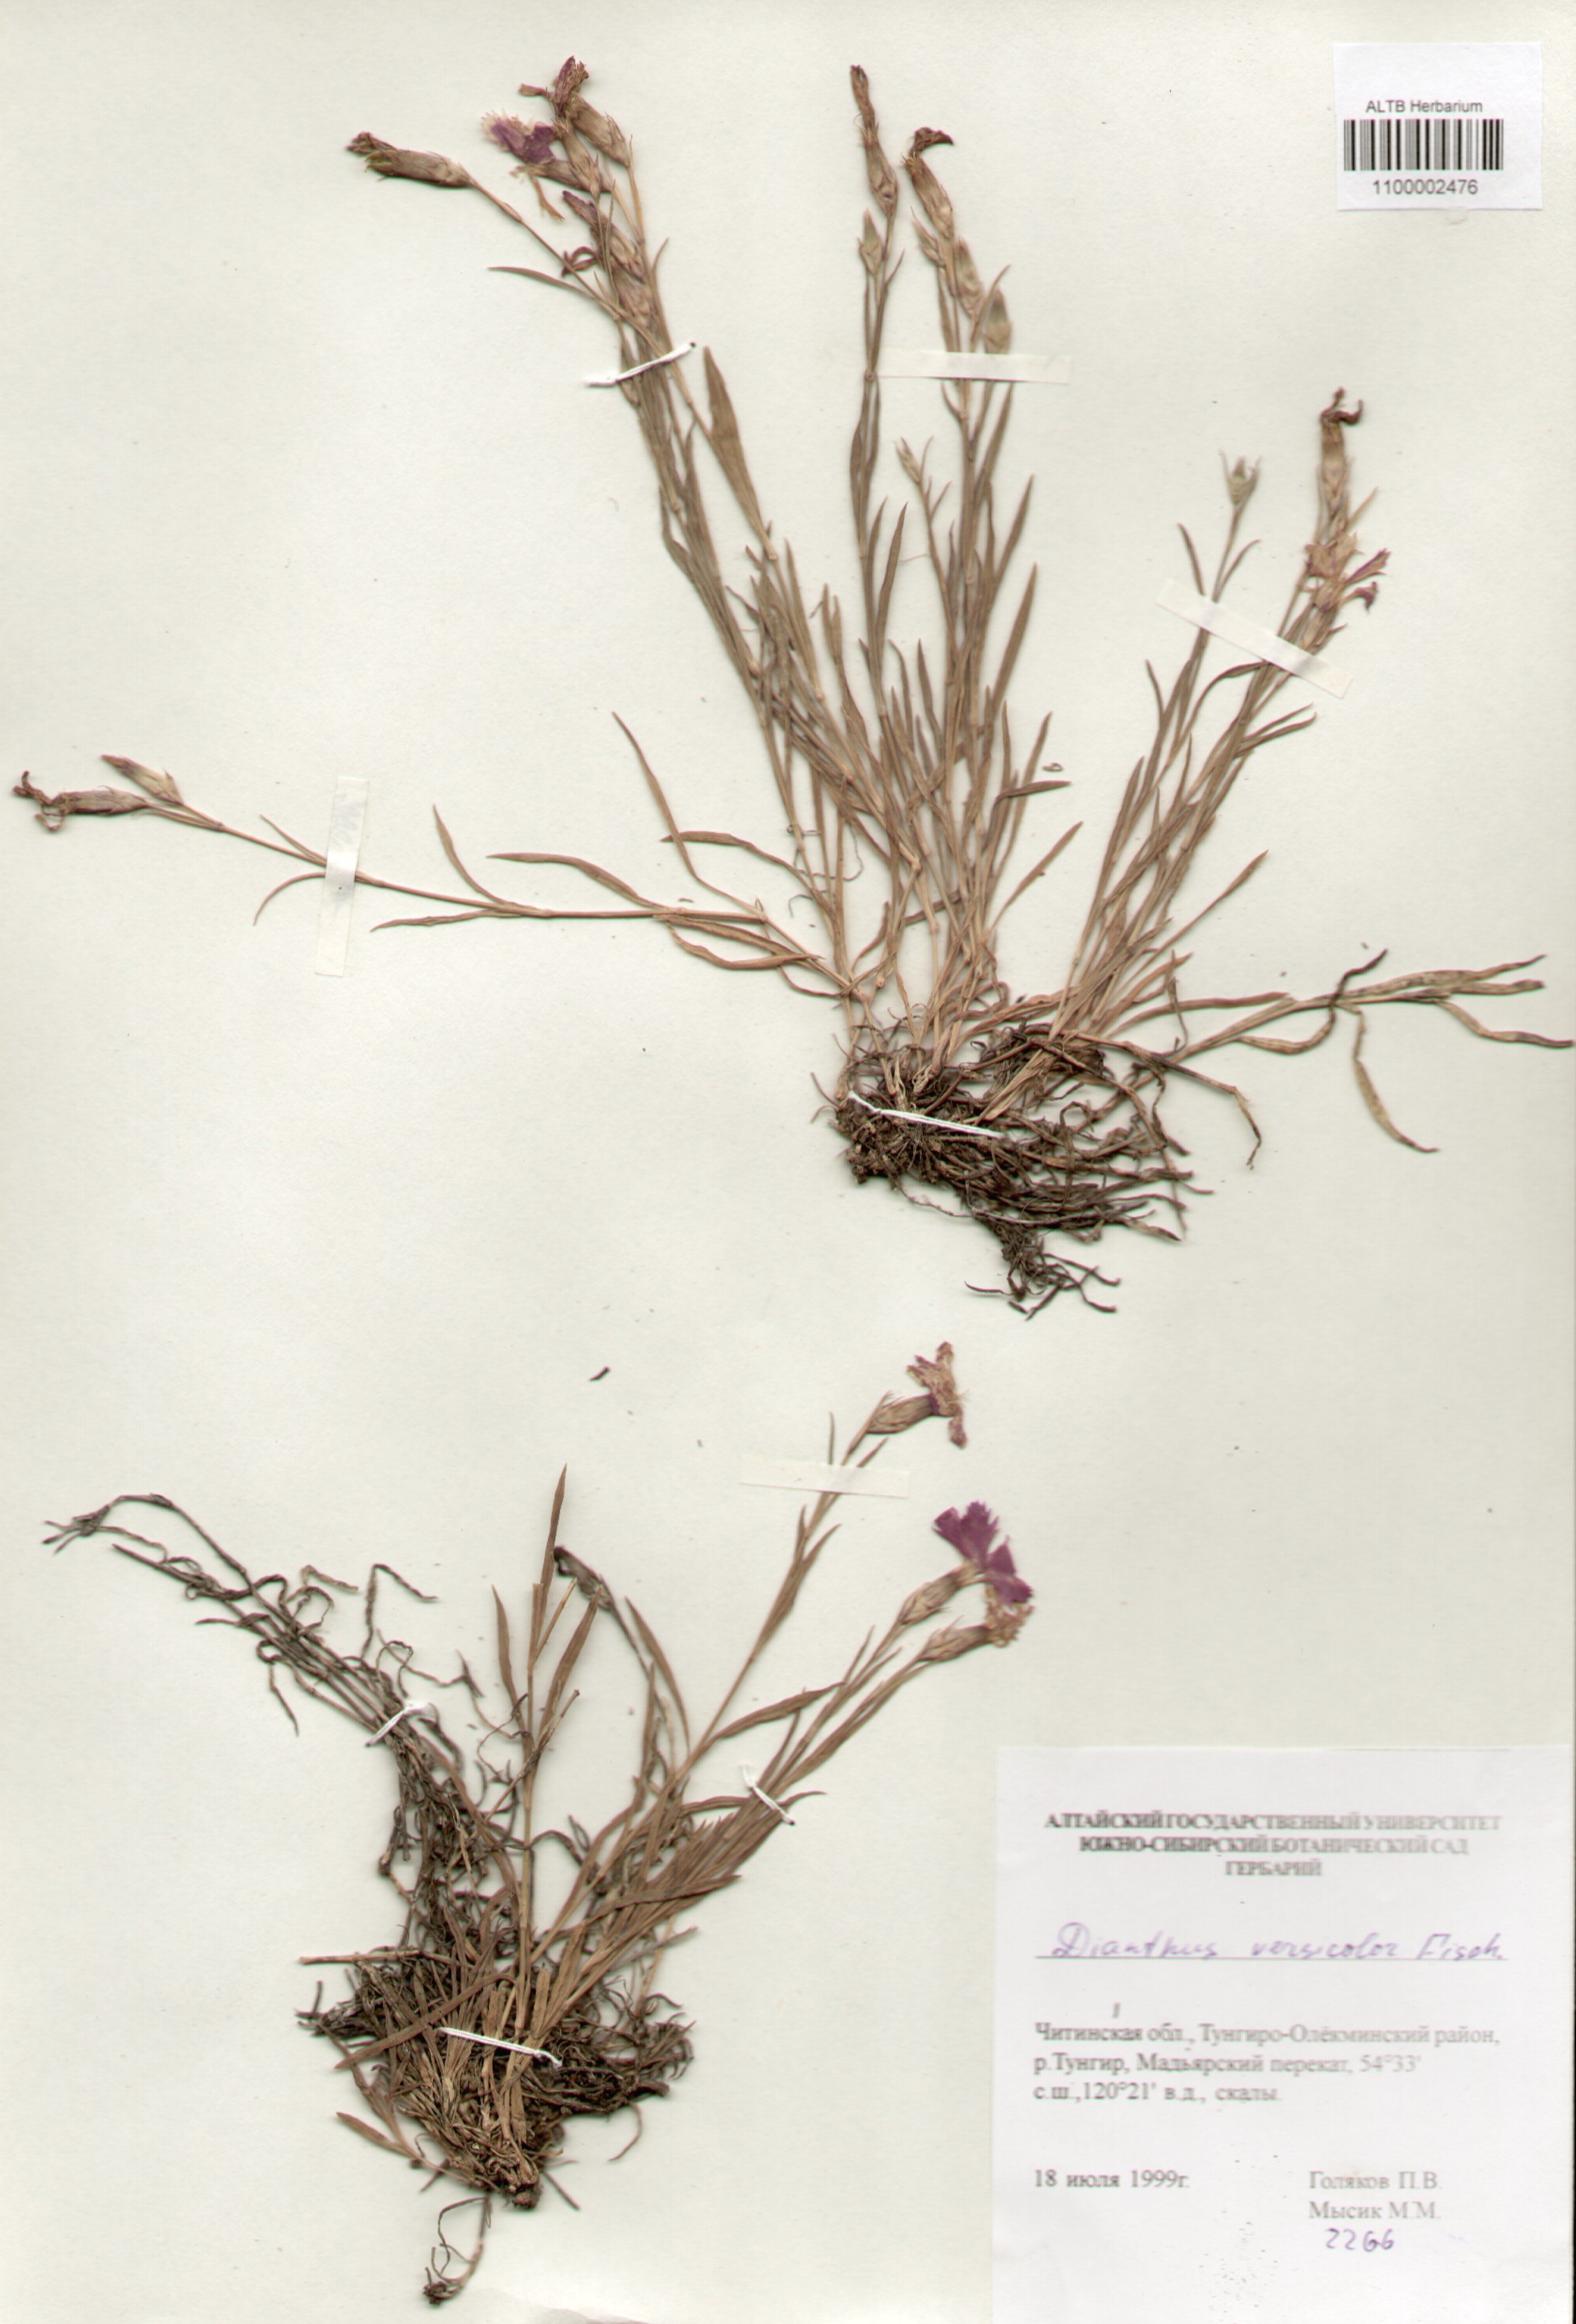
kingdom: Plantae
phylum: Tracheophyta
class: Magnoliopsida
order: Caryophyllales
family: Caryophyllaceae
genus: Dianthus
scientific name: Dianthus chinensis
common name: Rainbow pink
